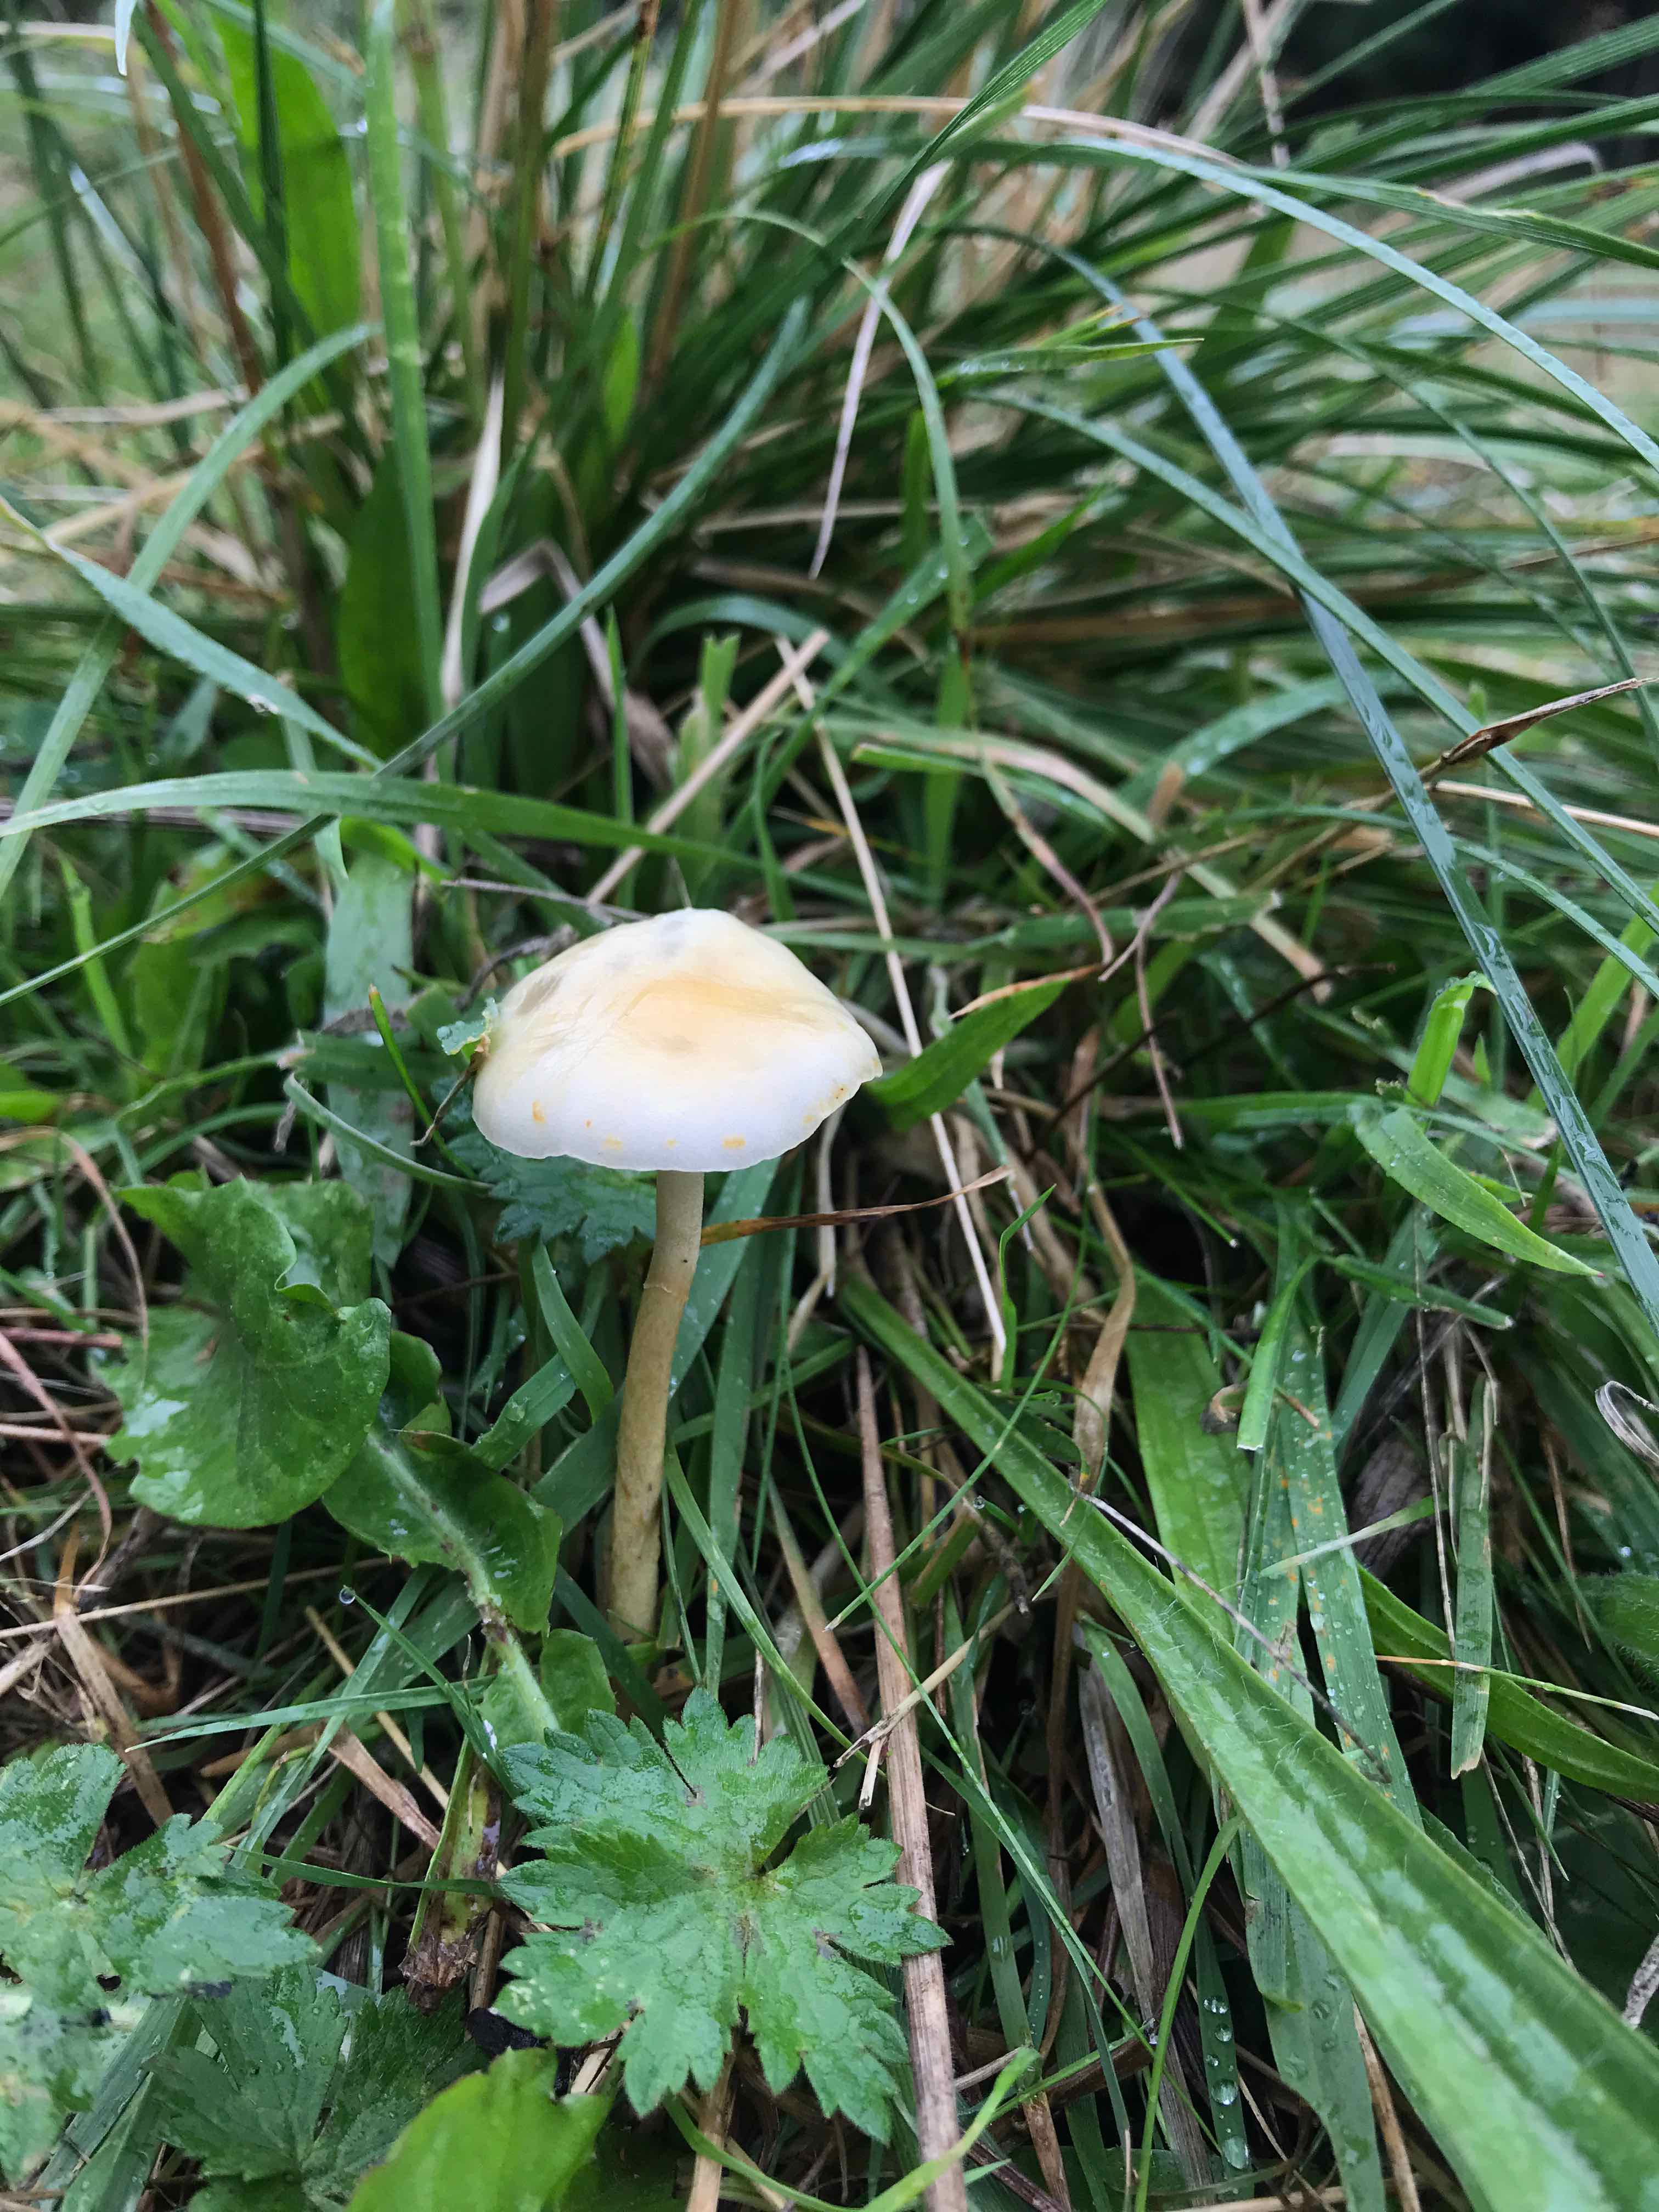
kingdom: Fungi
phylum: Basidiomycota
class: Agaricomycetes
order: Agaricales
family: Strophariaceae
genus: Protostropharia
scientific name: Protostropharia semiglobata
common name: halvkugleformet bredblad
